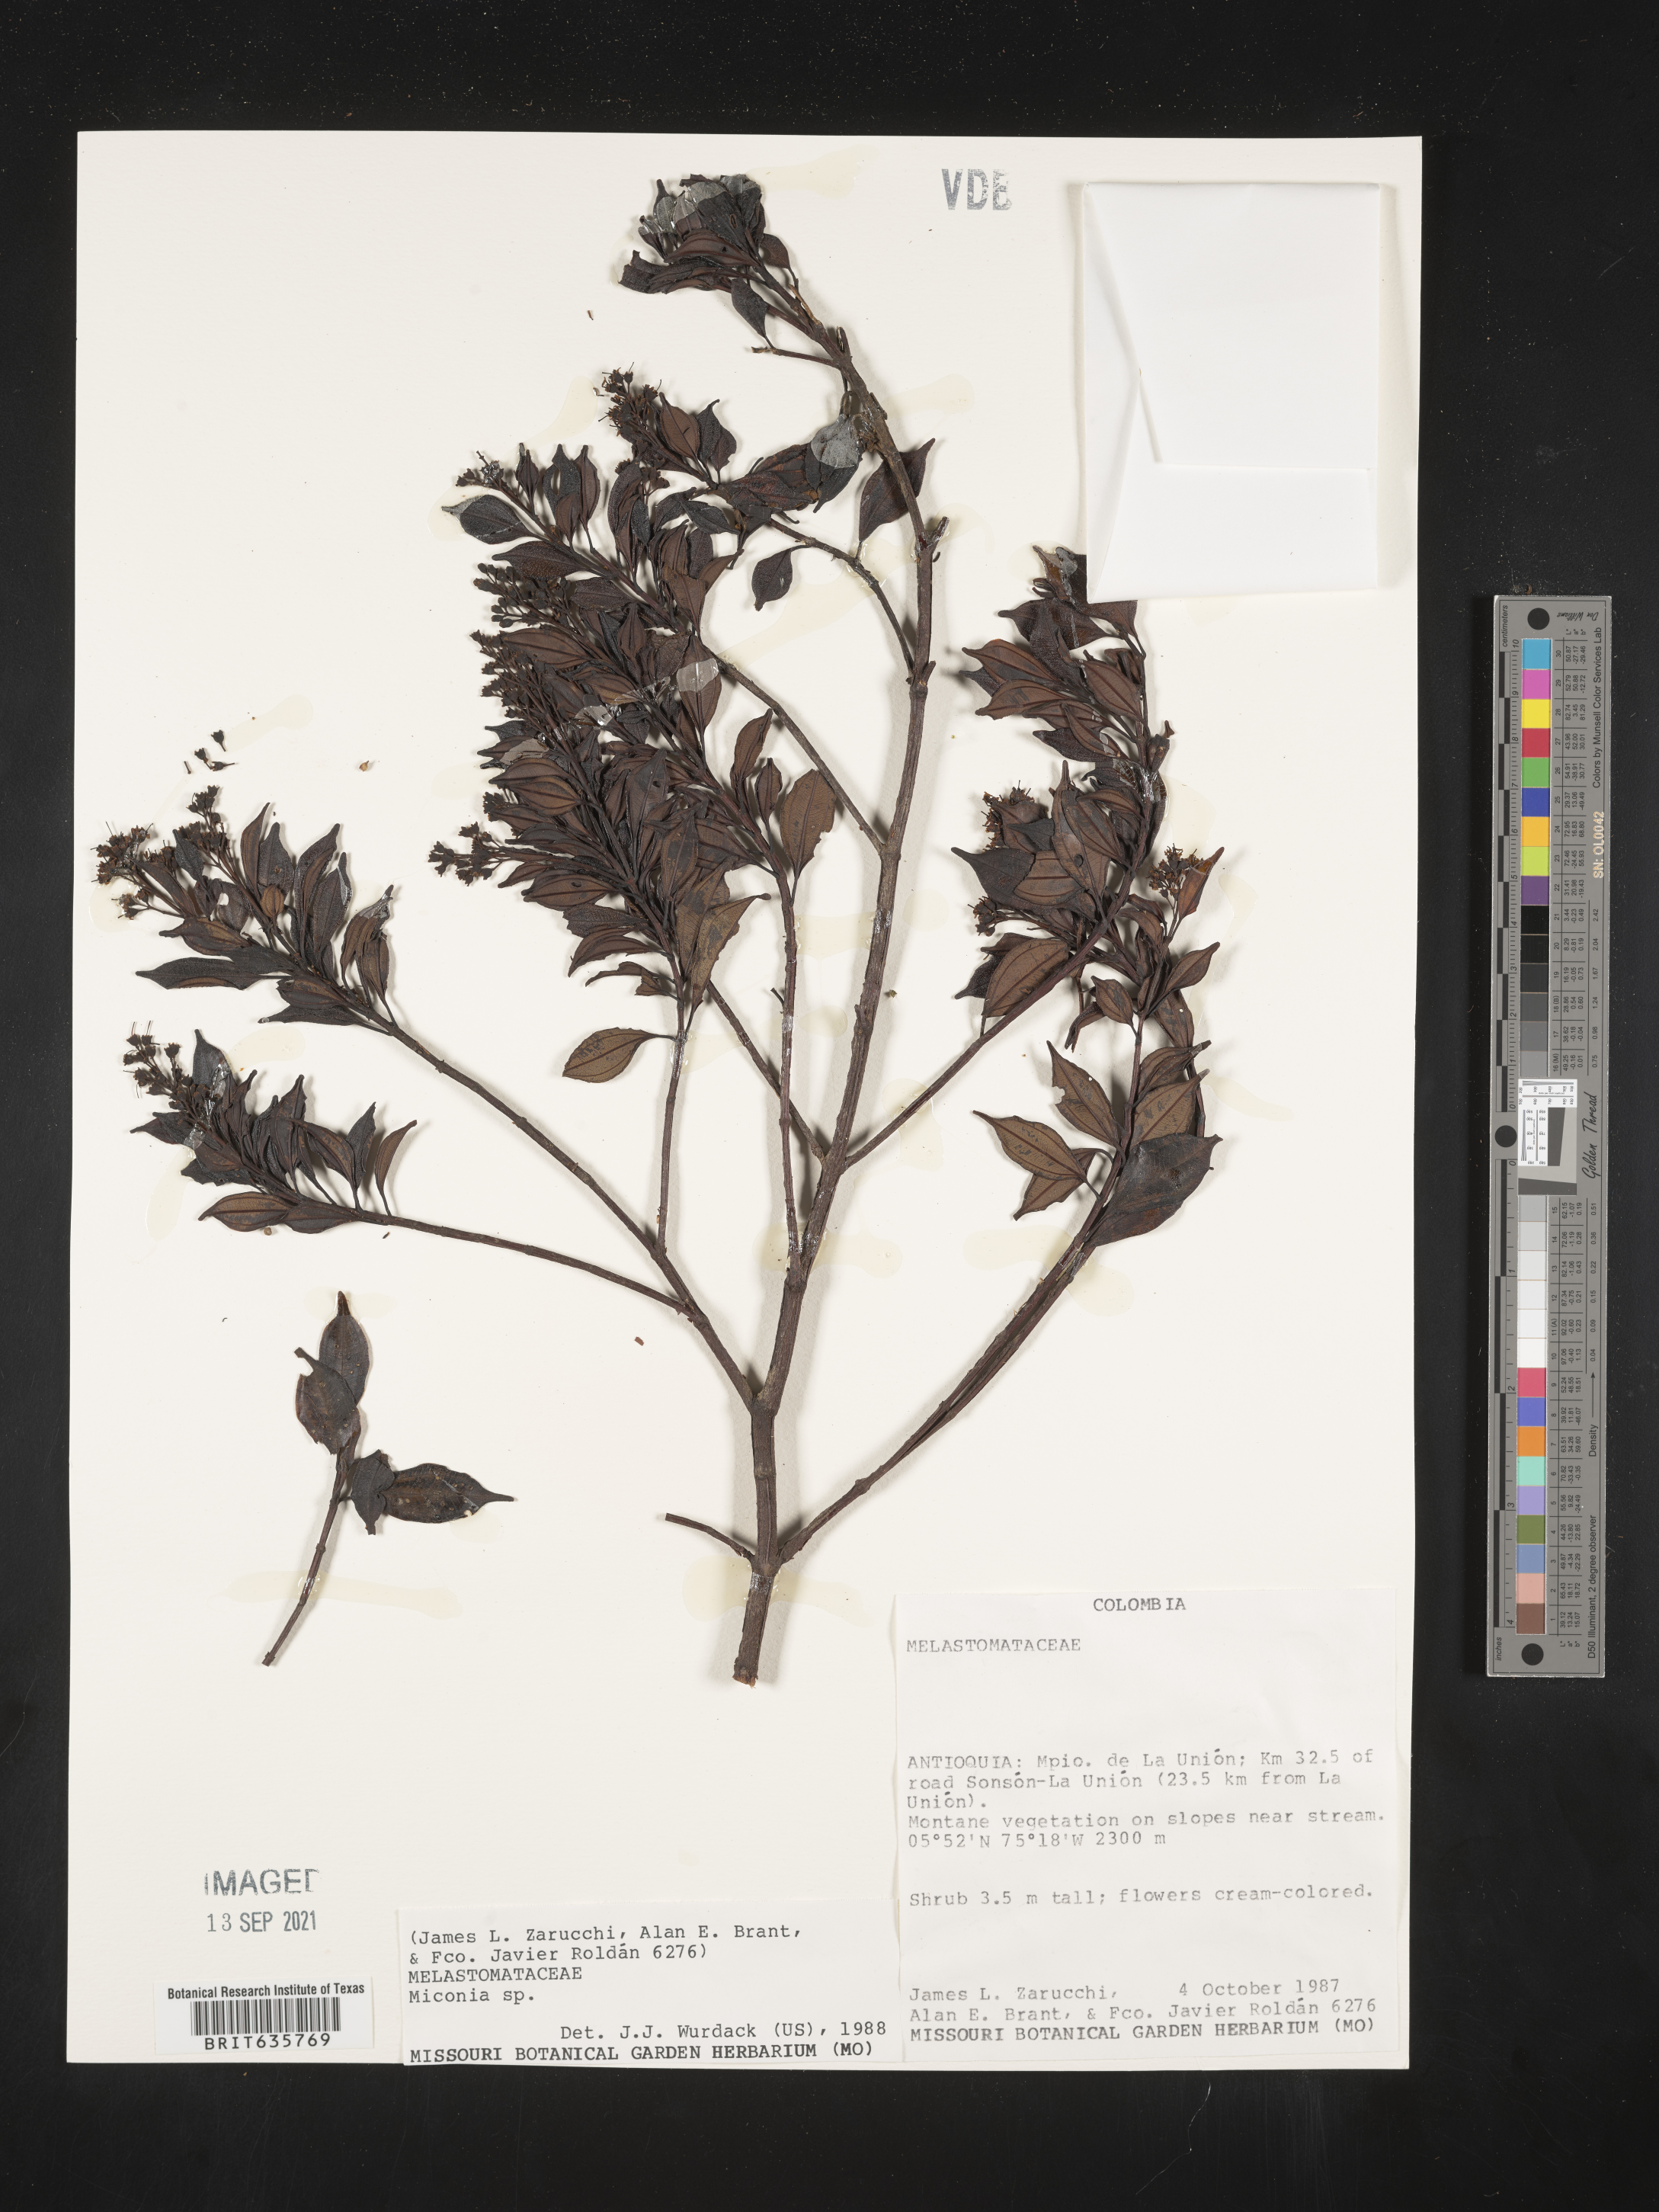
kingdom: Plantae
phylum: Tracheophyta
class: Magnoliopsida
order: Myrtales
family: Melastomataceae
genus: Miconia
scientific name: Miconia
